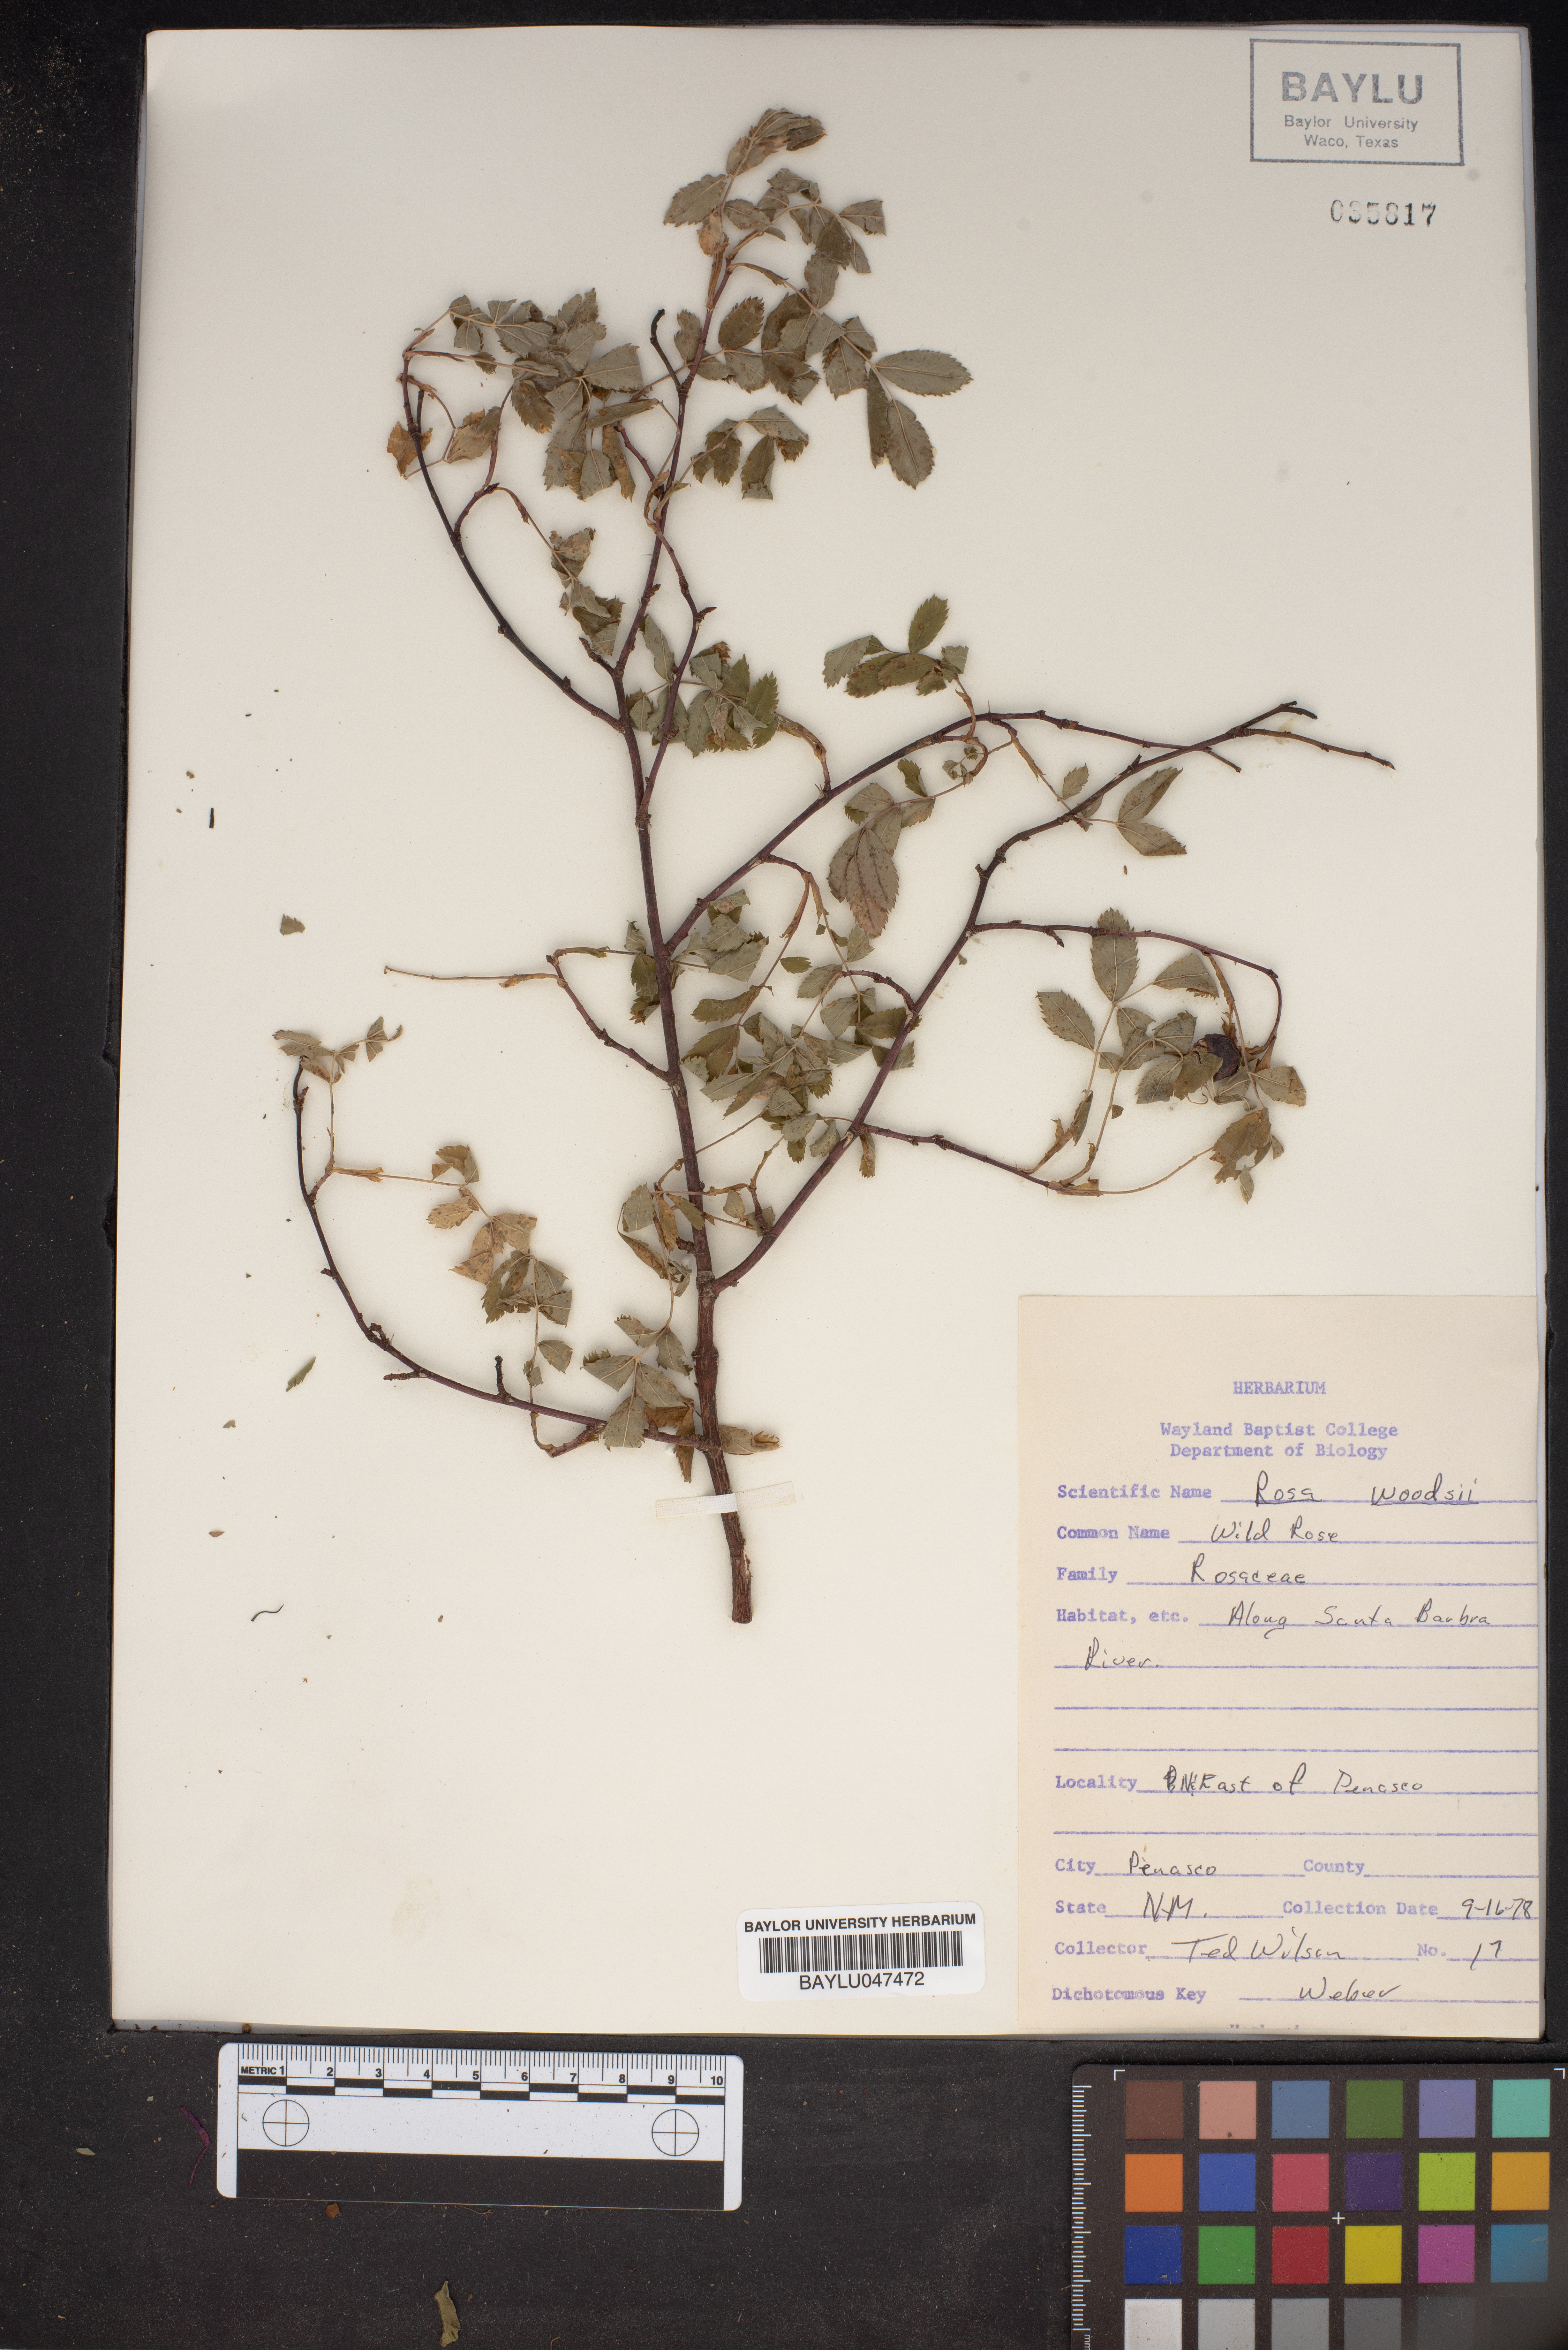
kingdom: Plantae
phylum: Tracheophyta
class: Magnoliopsida
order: Rosales
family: Rosaceae
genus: Rosa
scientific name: Rosa woodsii
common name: Woods's rose
